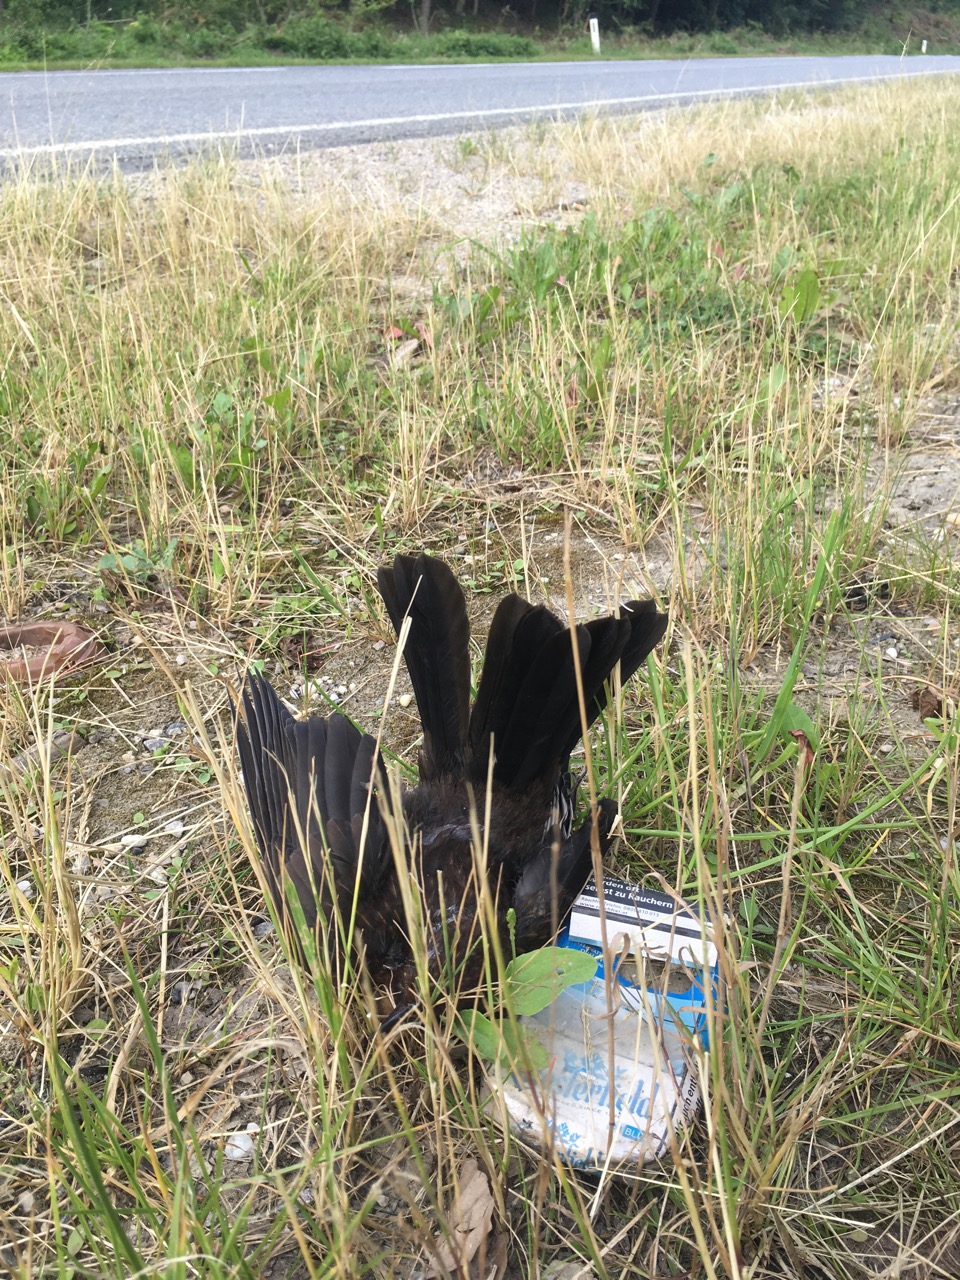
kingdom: Animalia
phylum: Chordata
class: Aves
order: Passeriformes
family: Turdidae
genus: Turdus
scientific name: Turdus merula
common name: Common blackbird
